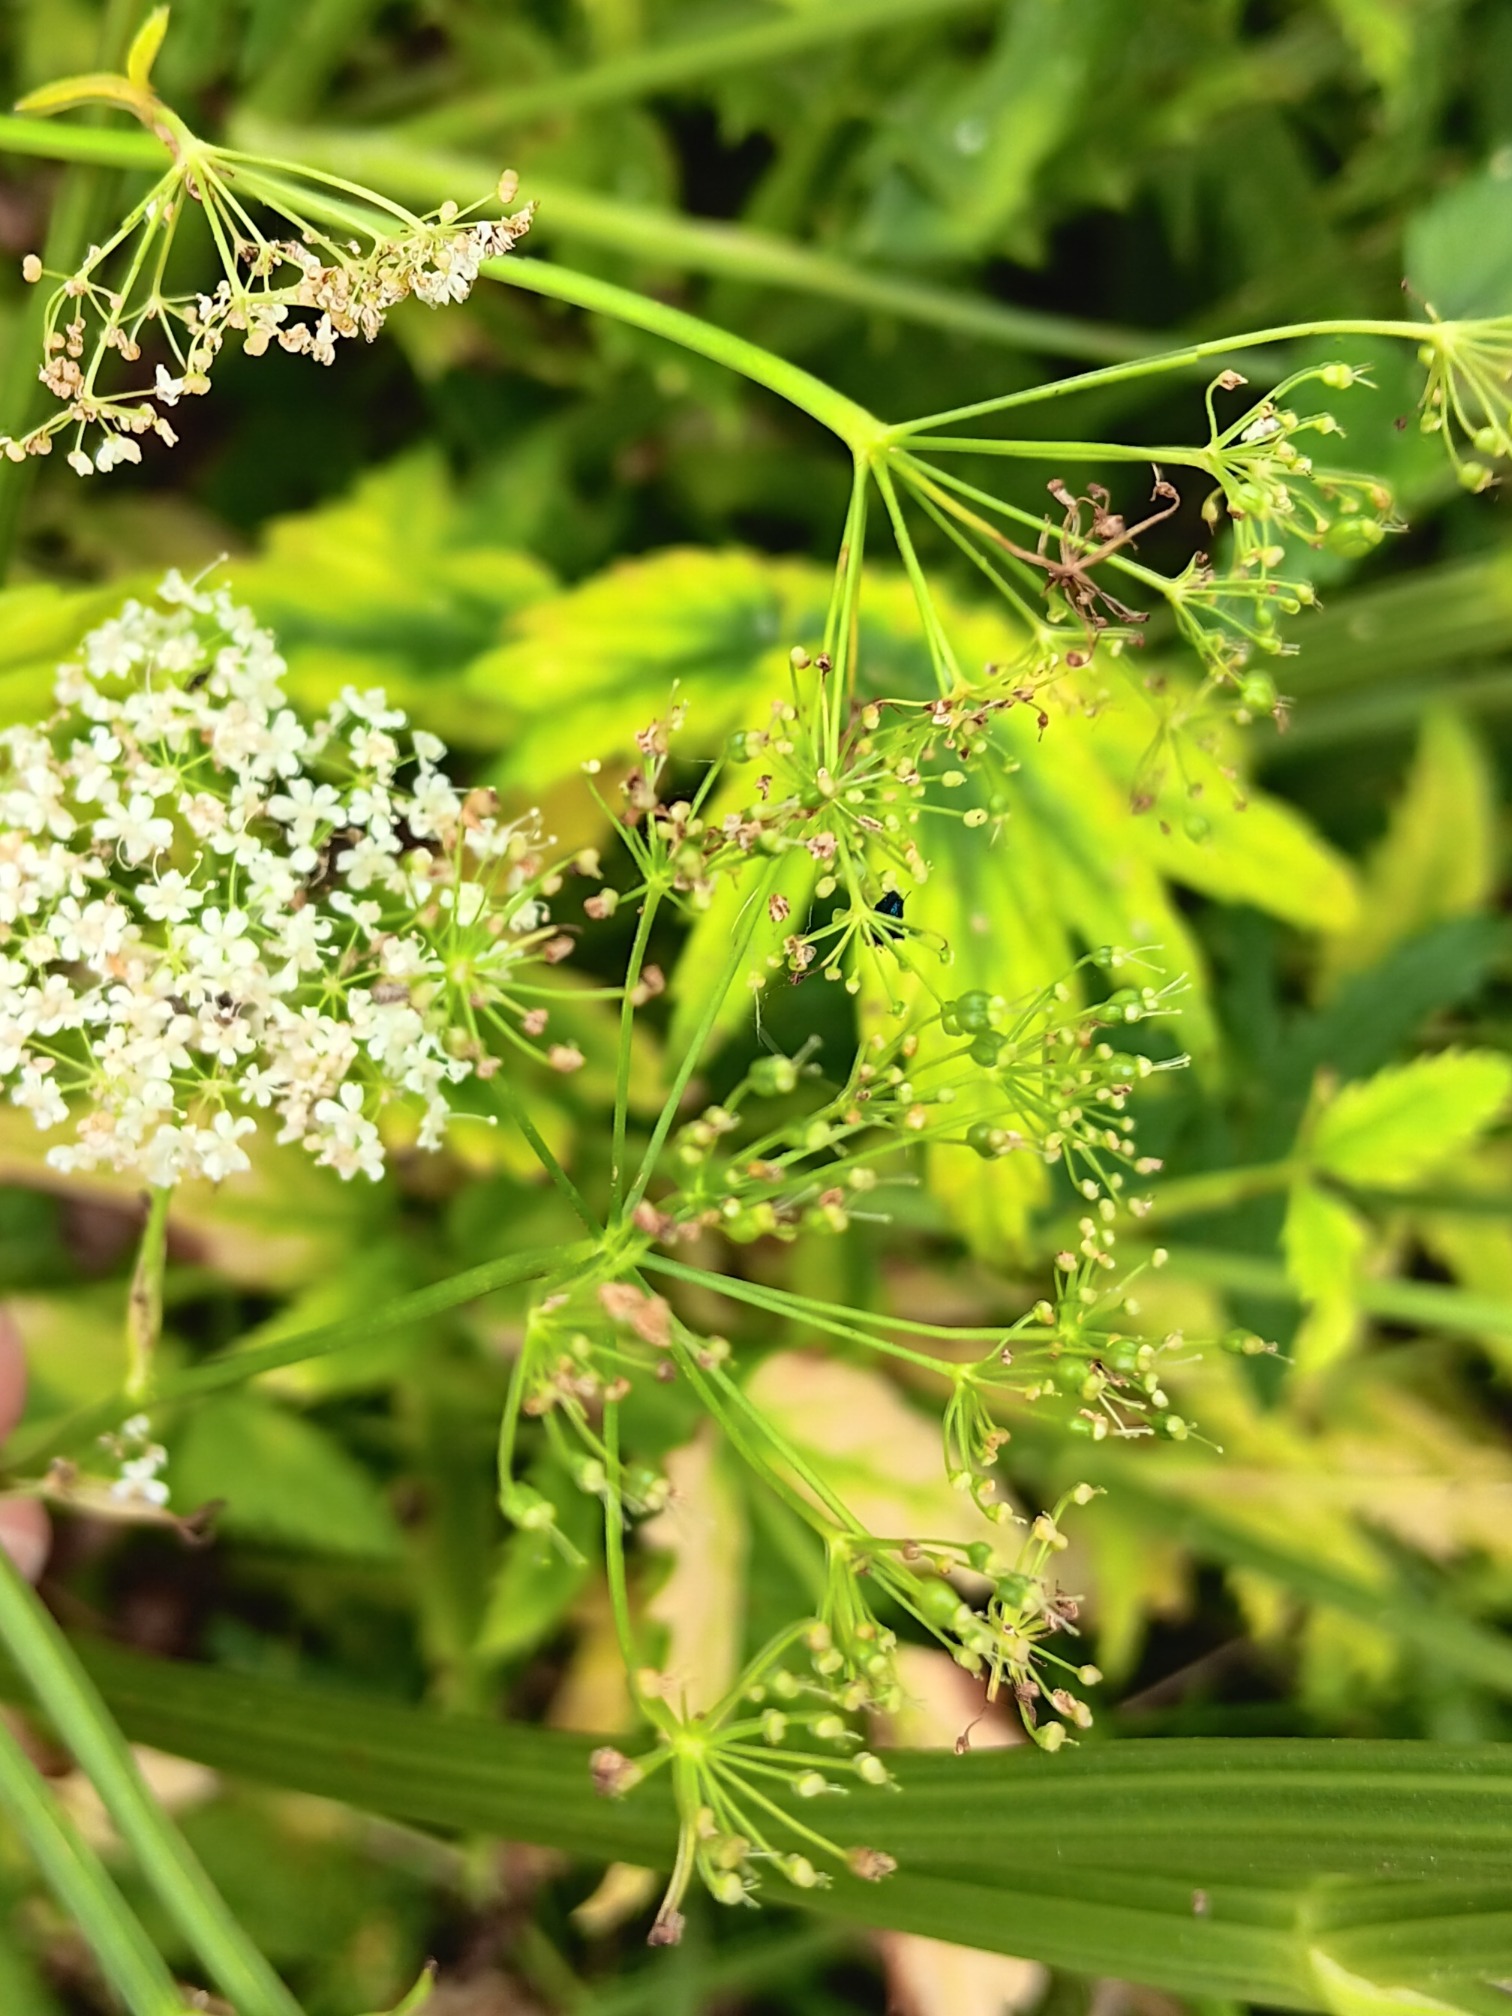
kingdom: Plantae
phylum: Tracheophyta
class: Magnoliopsida
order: Apiales
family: Apiaceae
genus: Pimpinella
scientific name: Pimpinella major
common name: Stor pimpinelle
